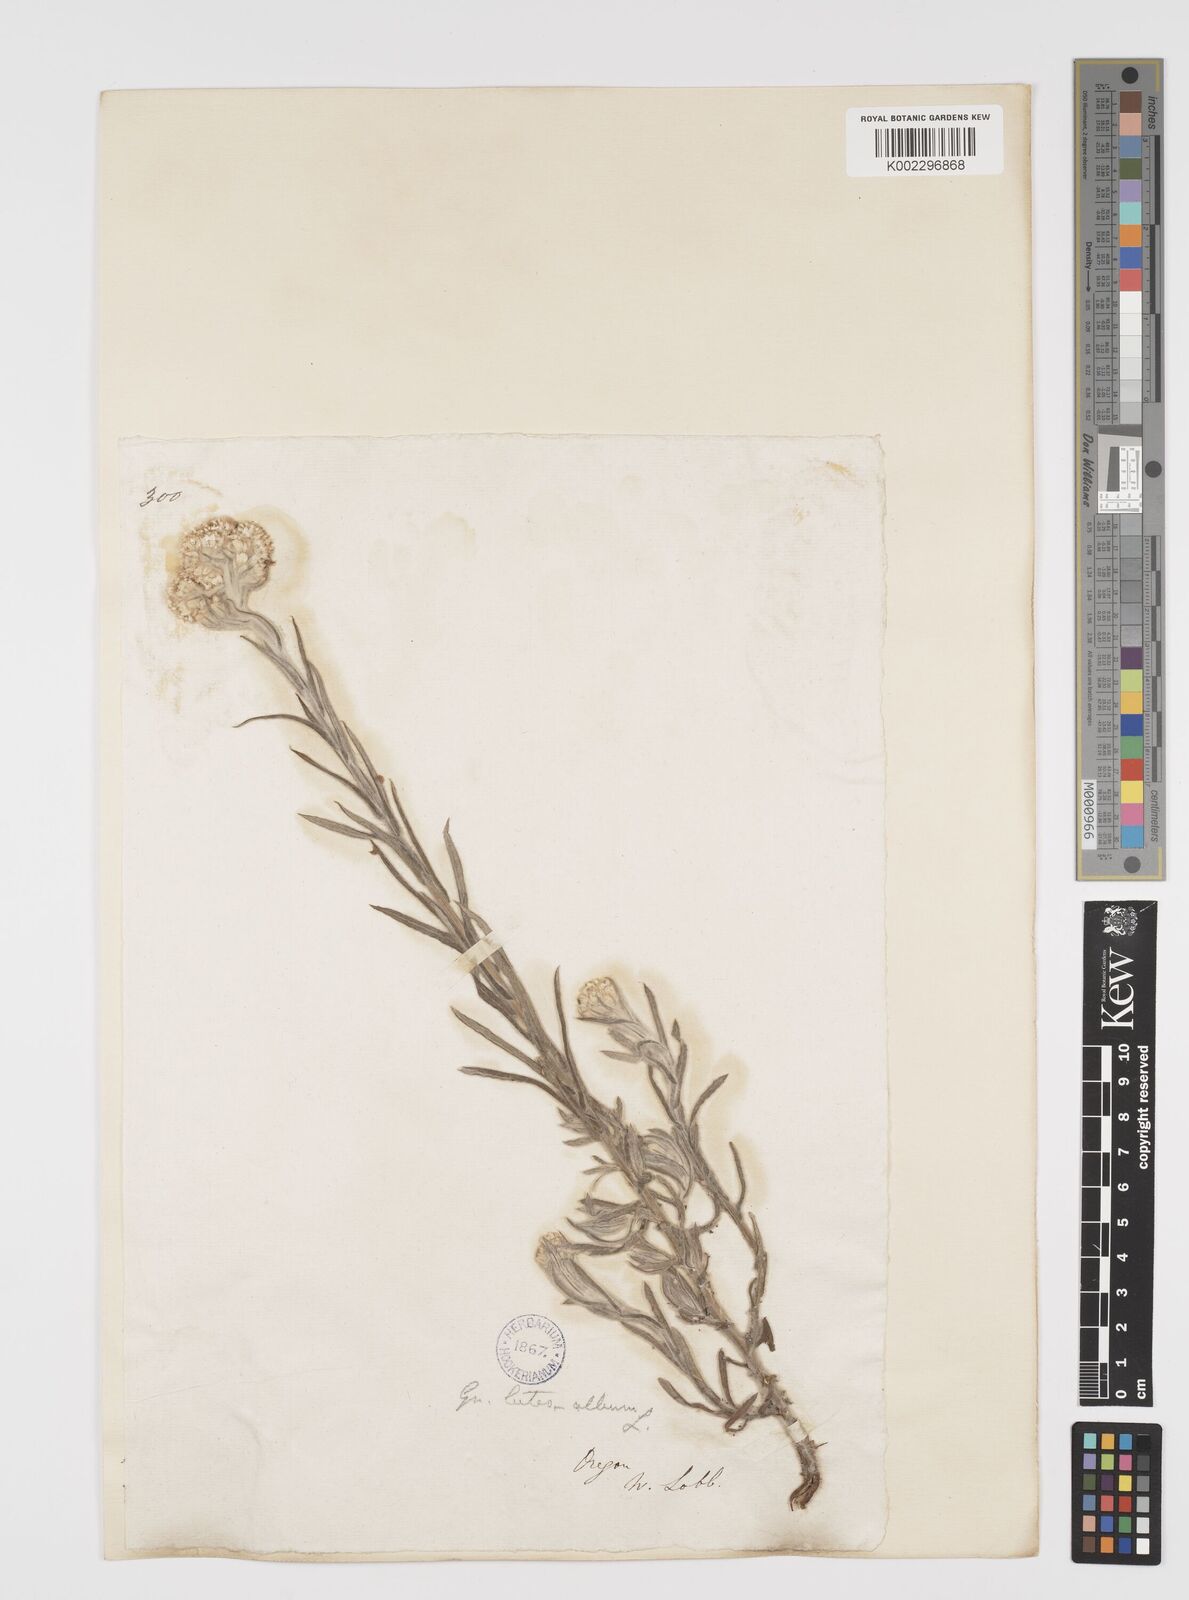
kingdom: Plantae
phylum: Tracheophyta
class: Magnoliopsida
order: Asterales
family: Asteraceae
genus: Helichrysum
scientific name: Helichrysum luteoalbum
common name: Daisy
